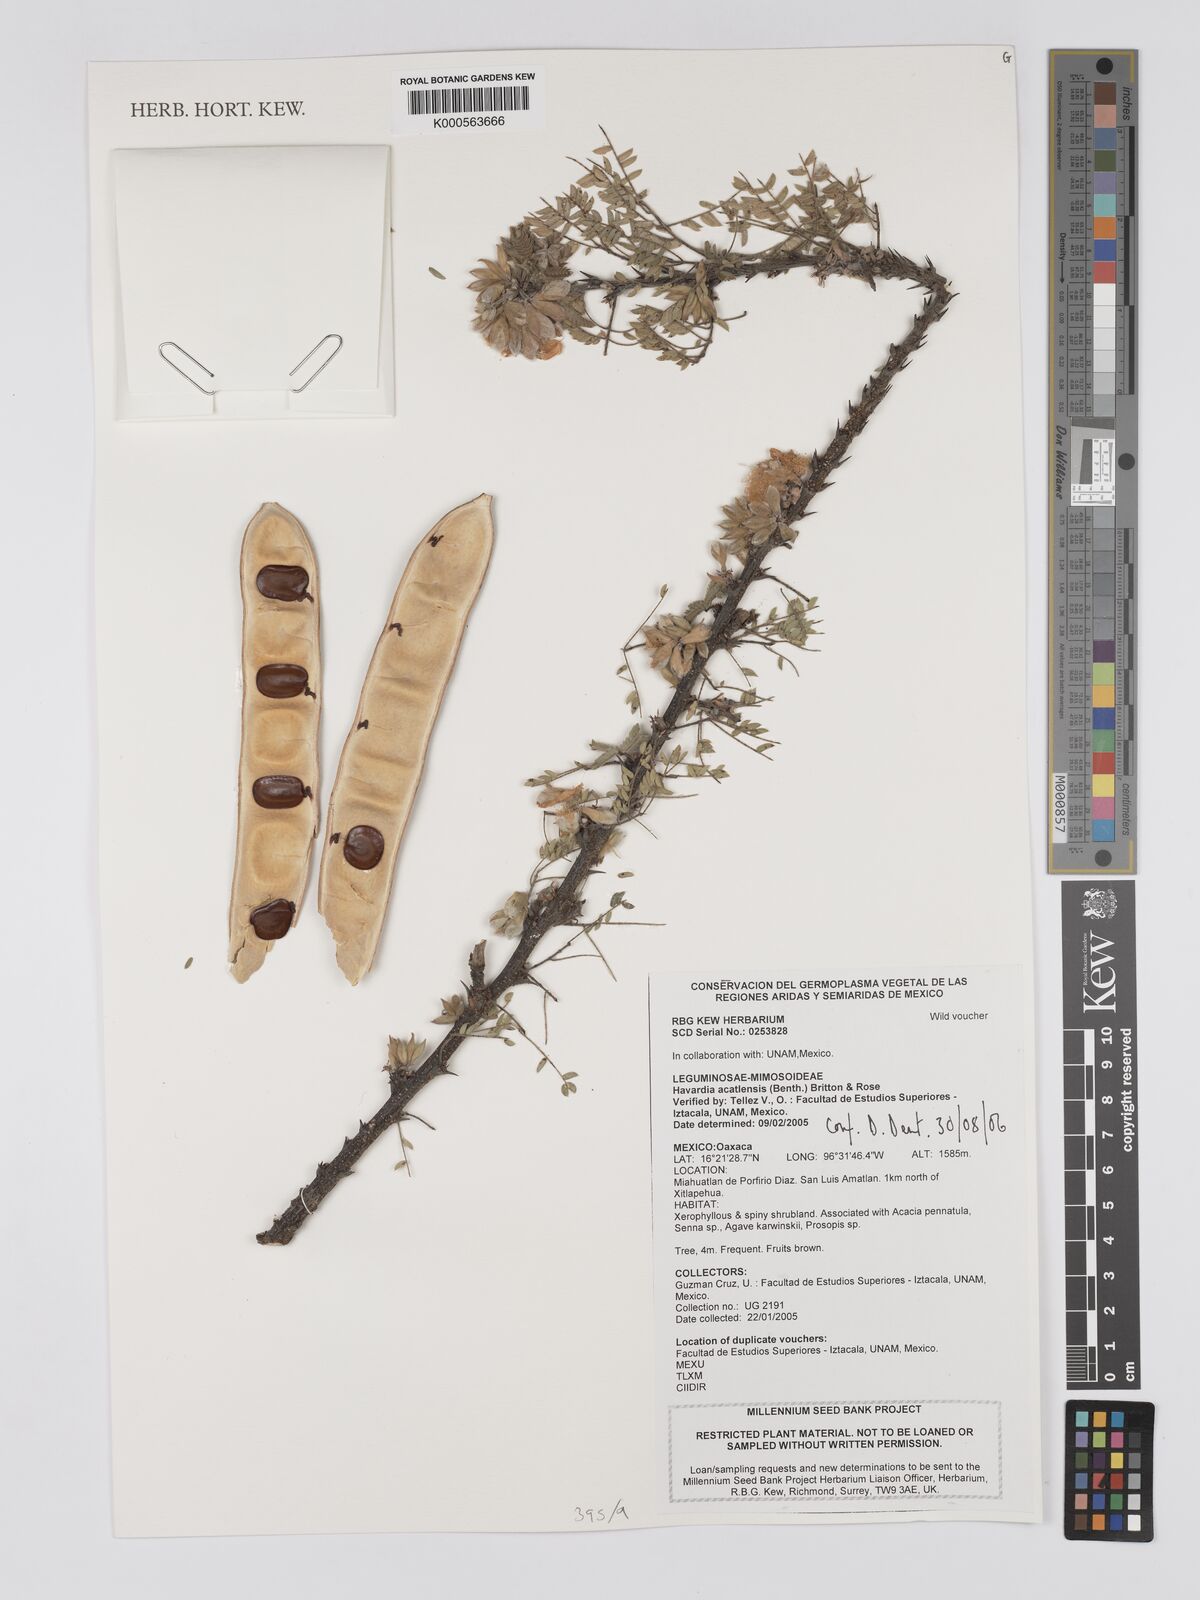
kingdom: Plantae
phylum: Tracheophyta
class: Magnoliopsida
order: Fabales
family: Fabaceae
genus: Havardia
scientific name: Havardia acatlensis
